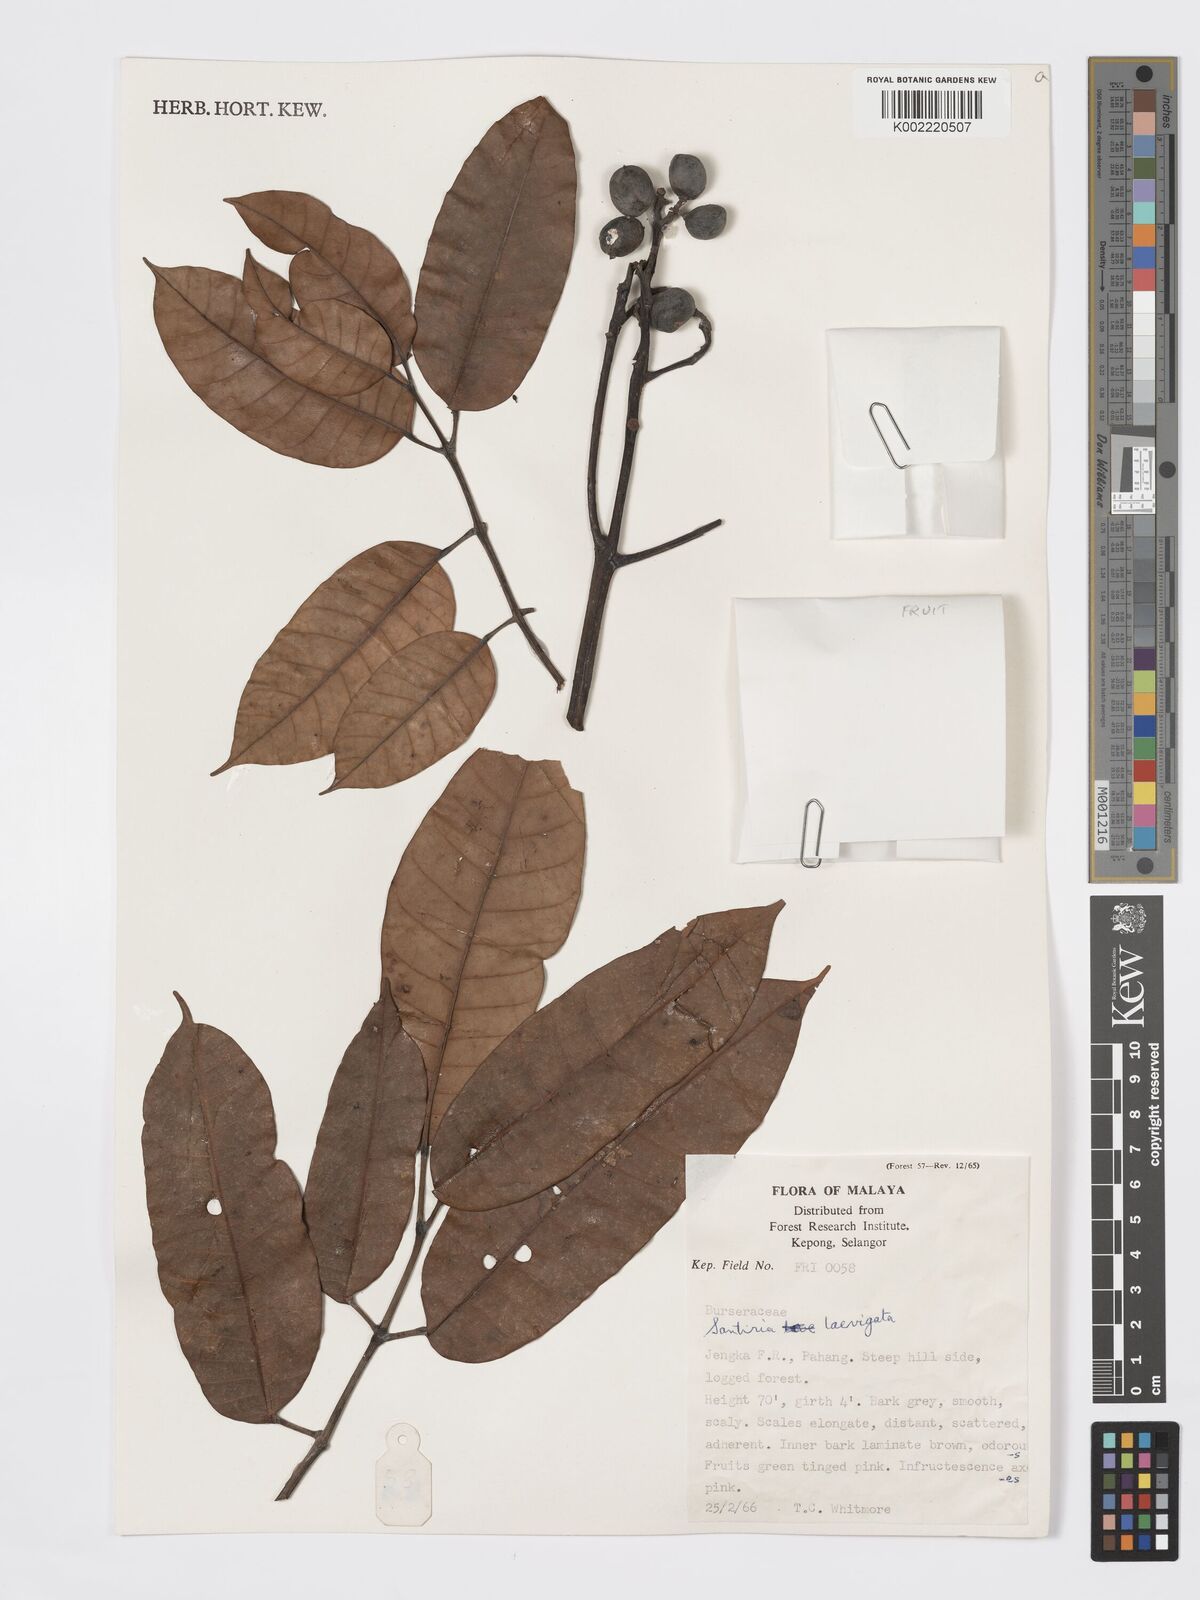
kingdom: Plantae
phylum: Tracheophyta
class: Magnoliopsida
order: Sapindales
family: Burseraceae
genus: Santiria
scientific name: Santiria laevigata
